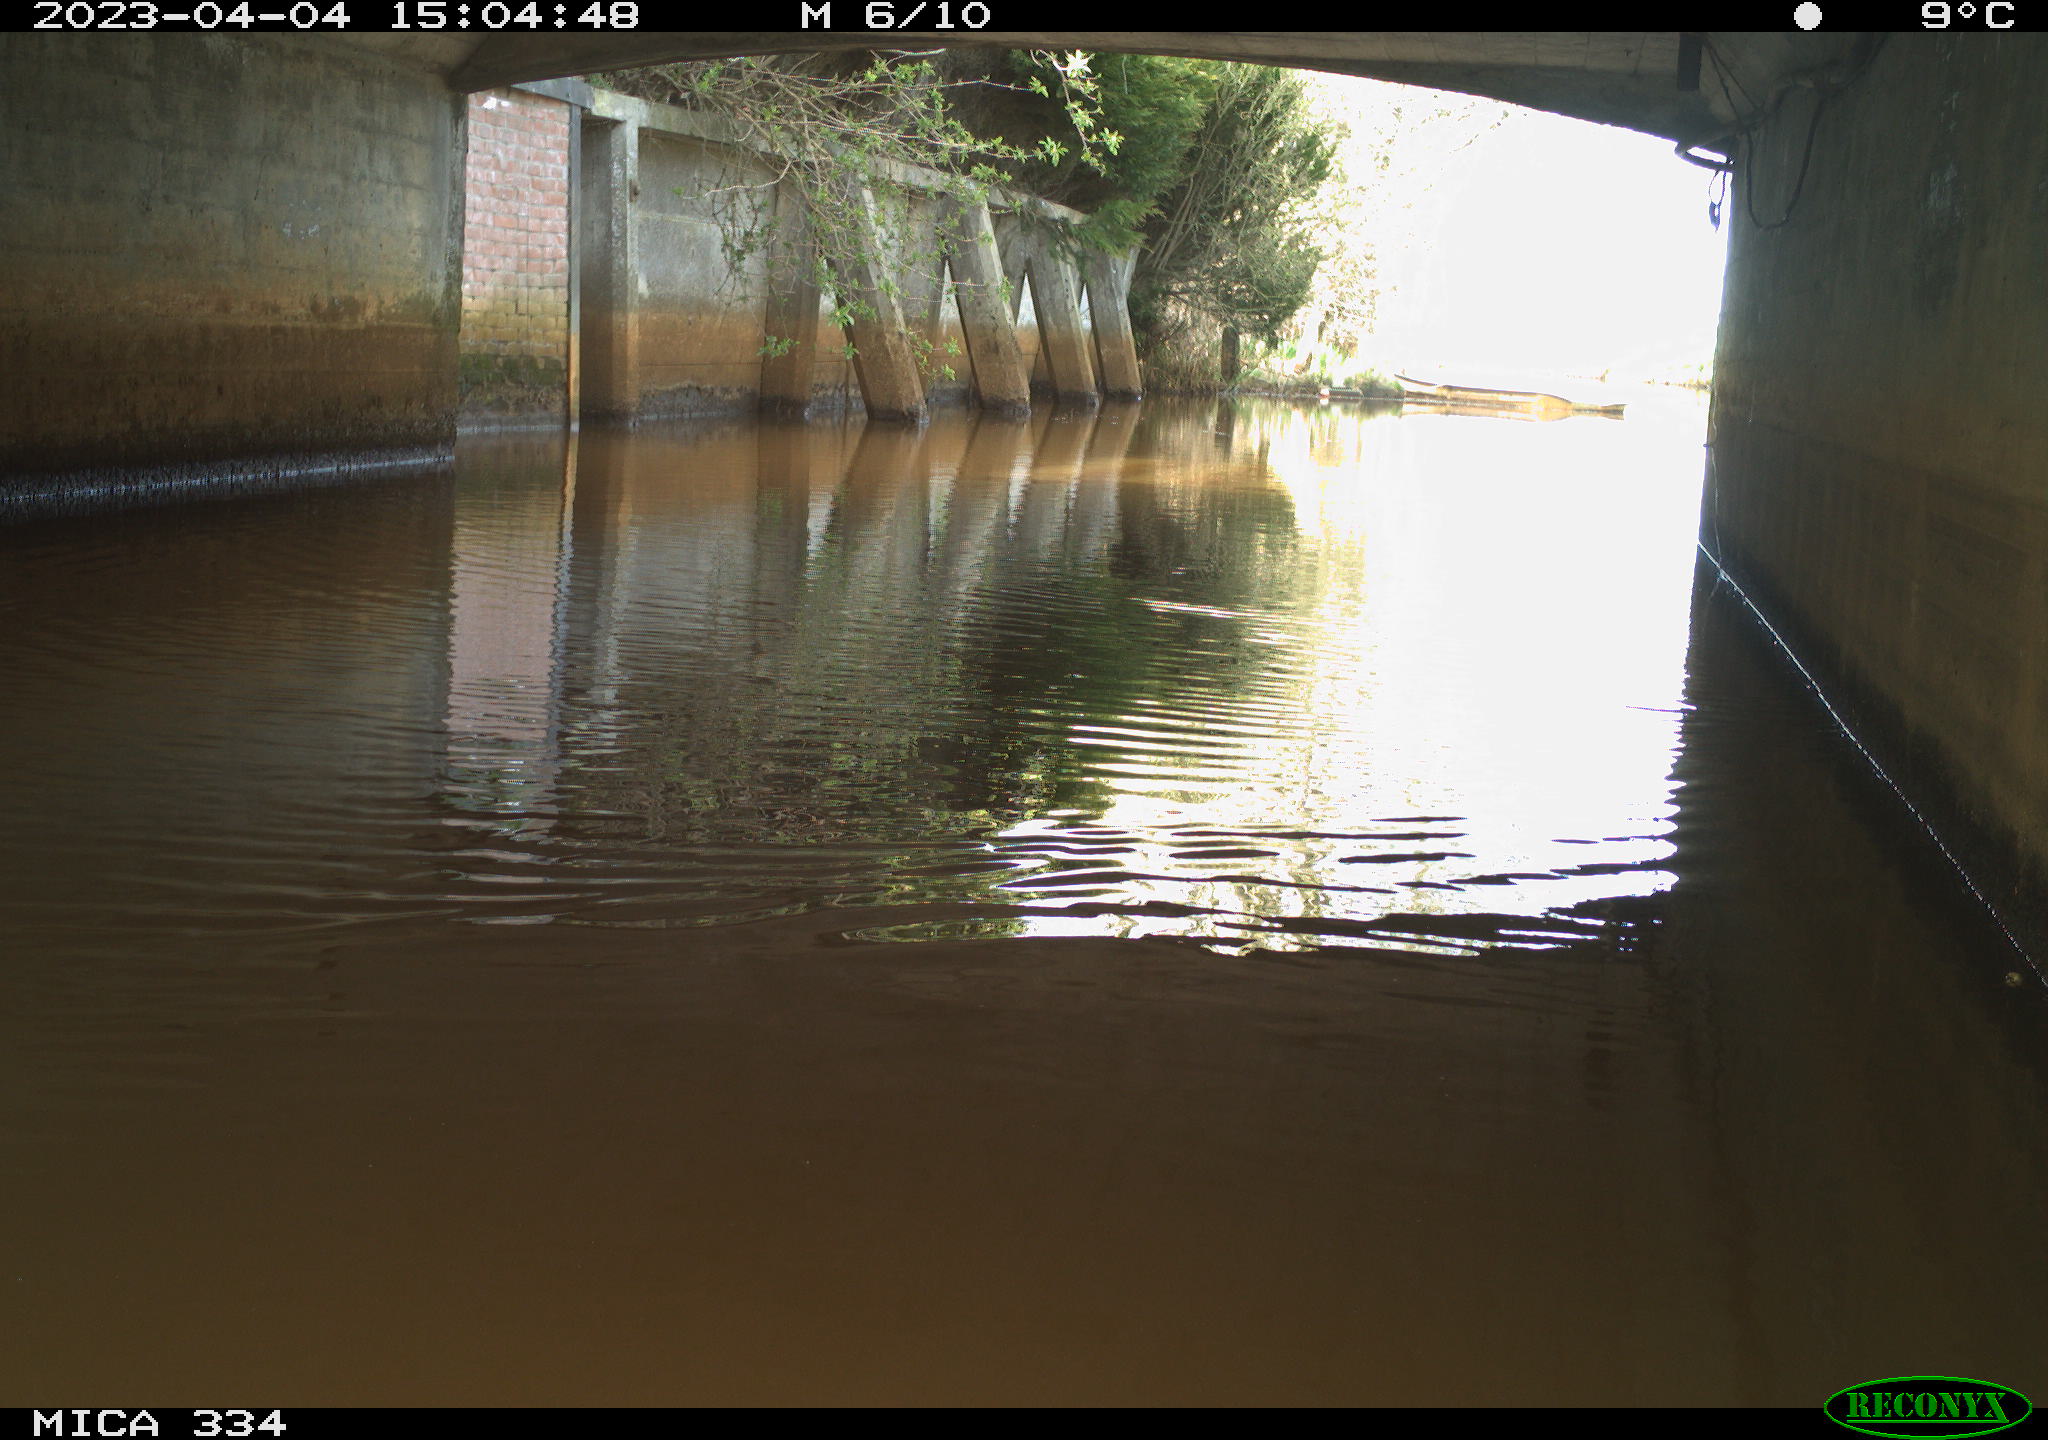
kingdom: Animalia
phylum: Chordata
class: Aves
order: Gruiformes
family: Rallidae
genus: Gallinula
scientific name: Gallinula chloropus
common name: Common moorhen
